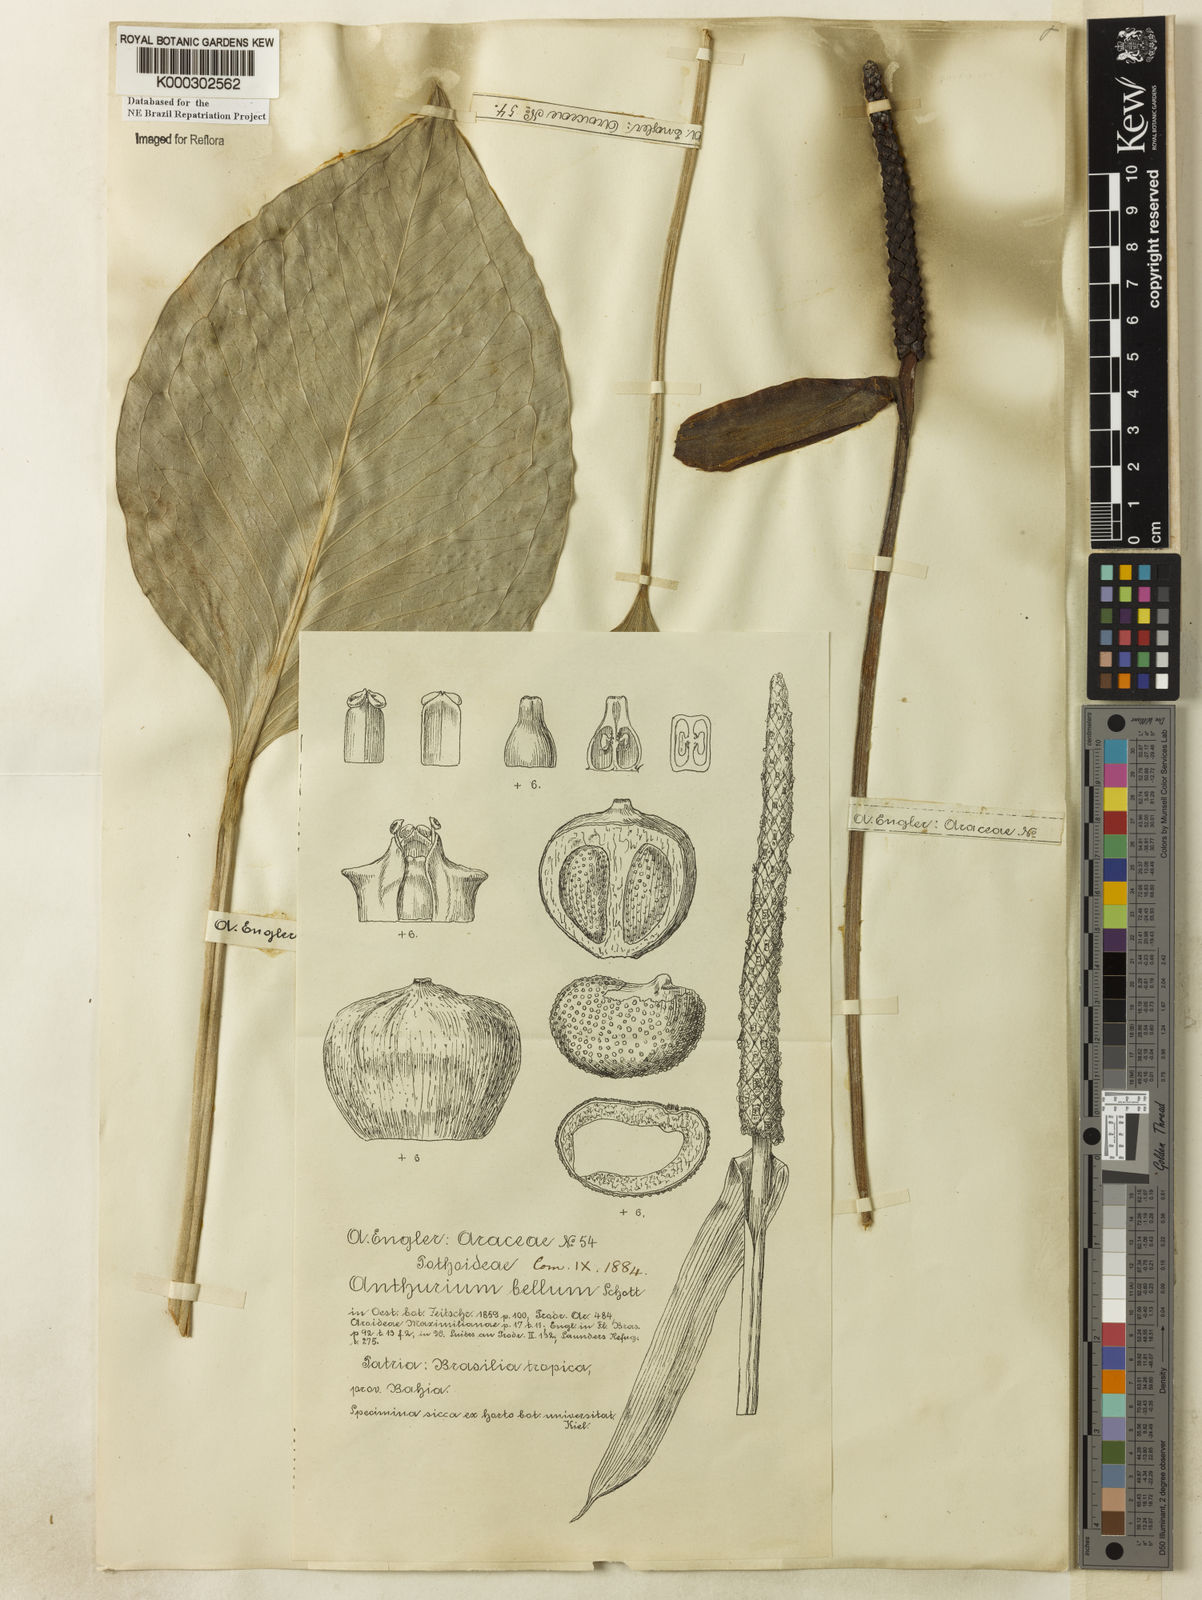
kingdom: Plantae
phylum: Tracheophyta
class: Liliopsida
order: Alismatales
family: Araceae
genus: Anthurium
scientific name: Anthurium bellum
